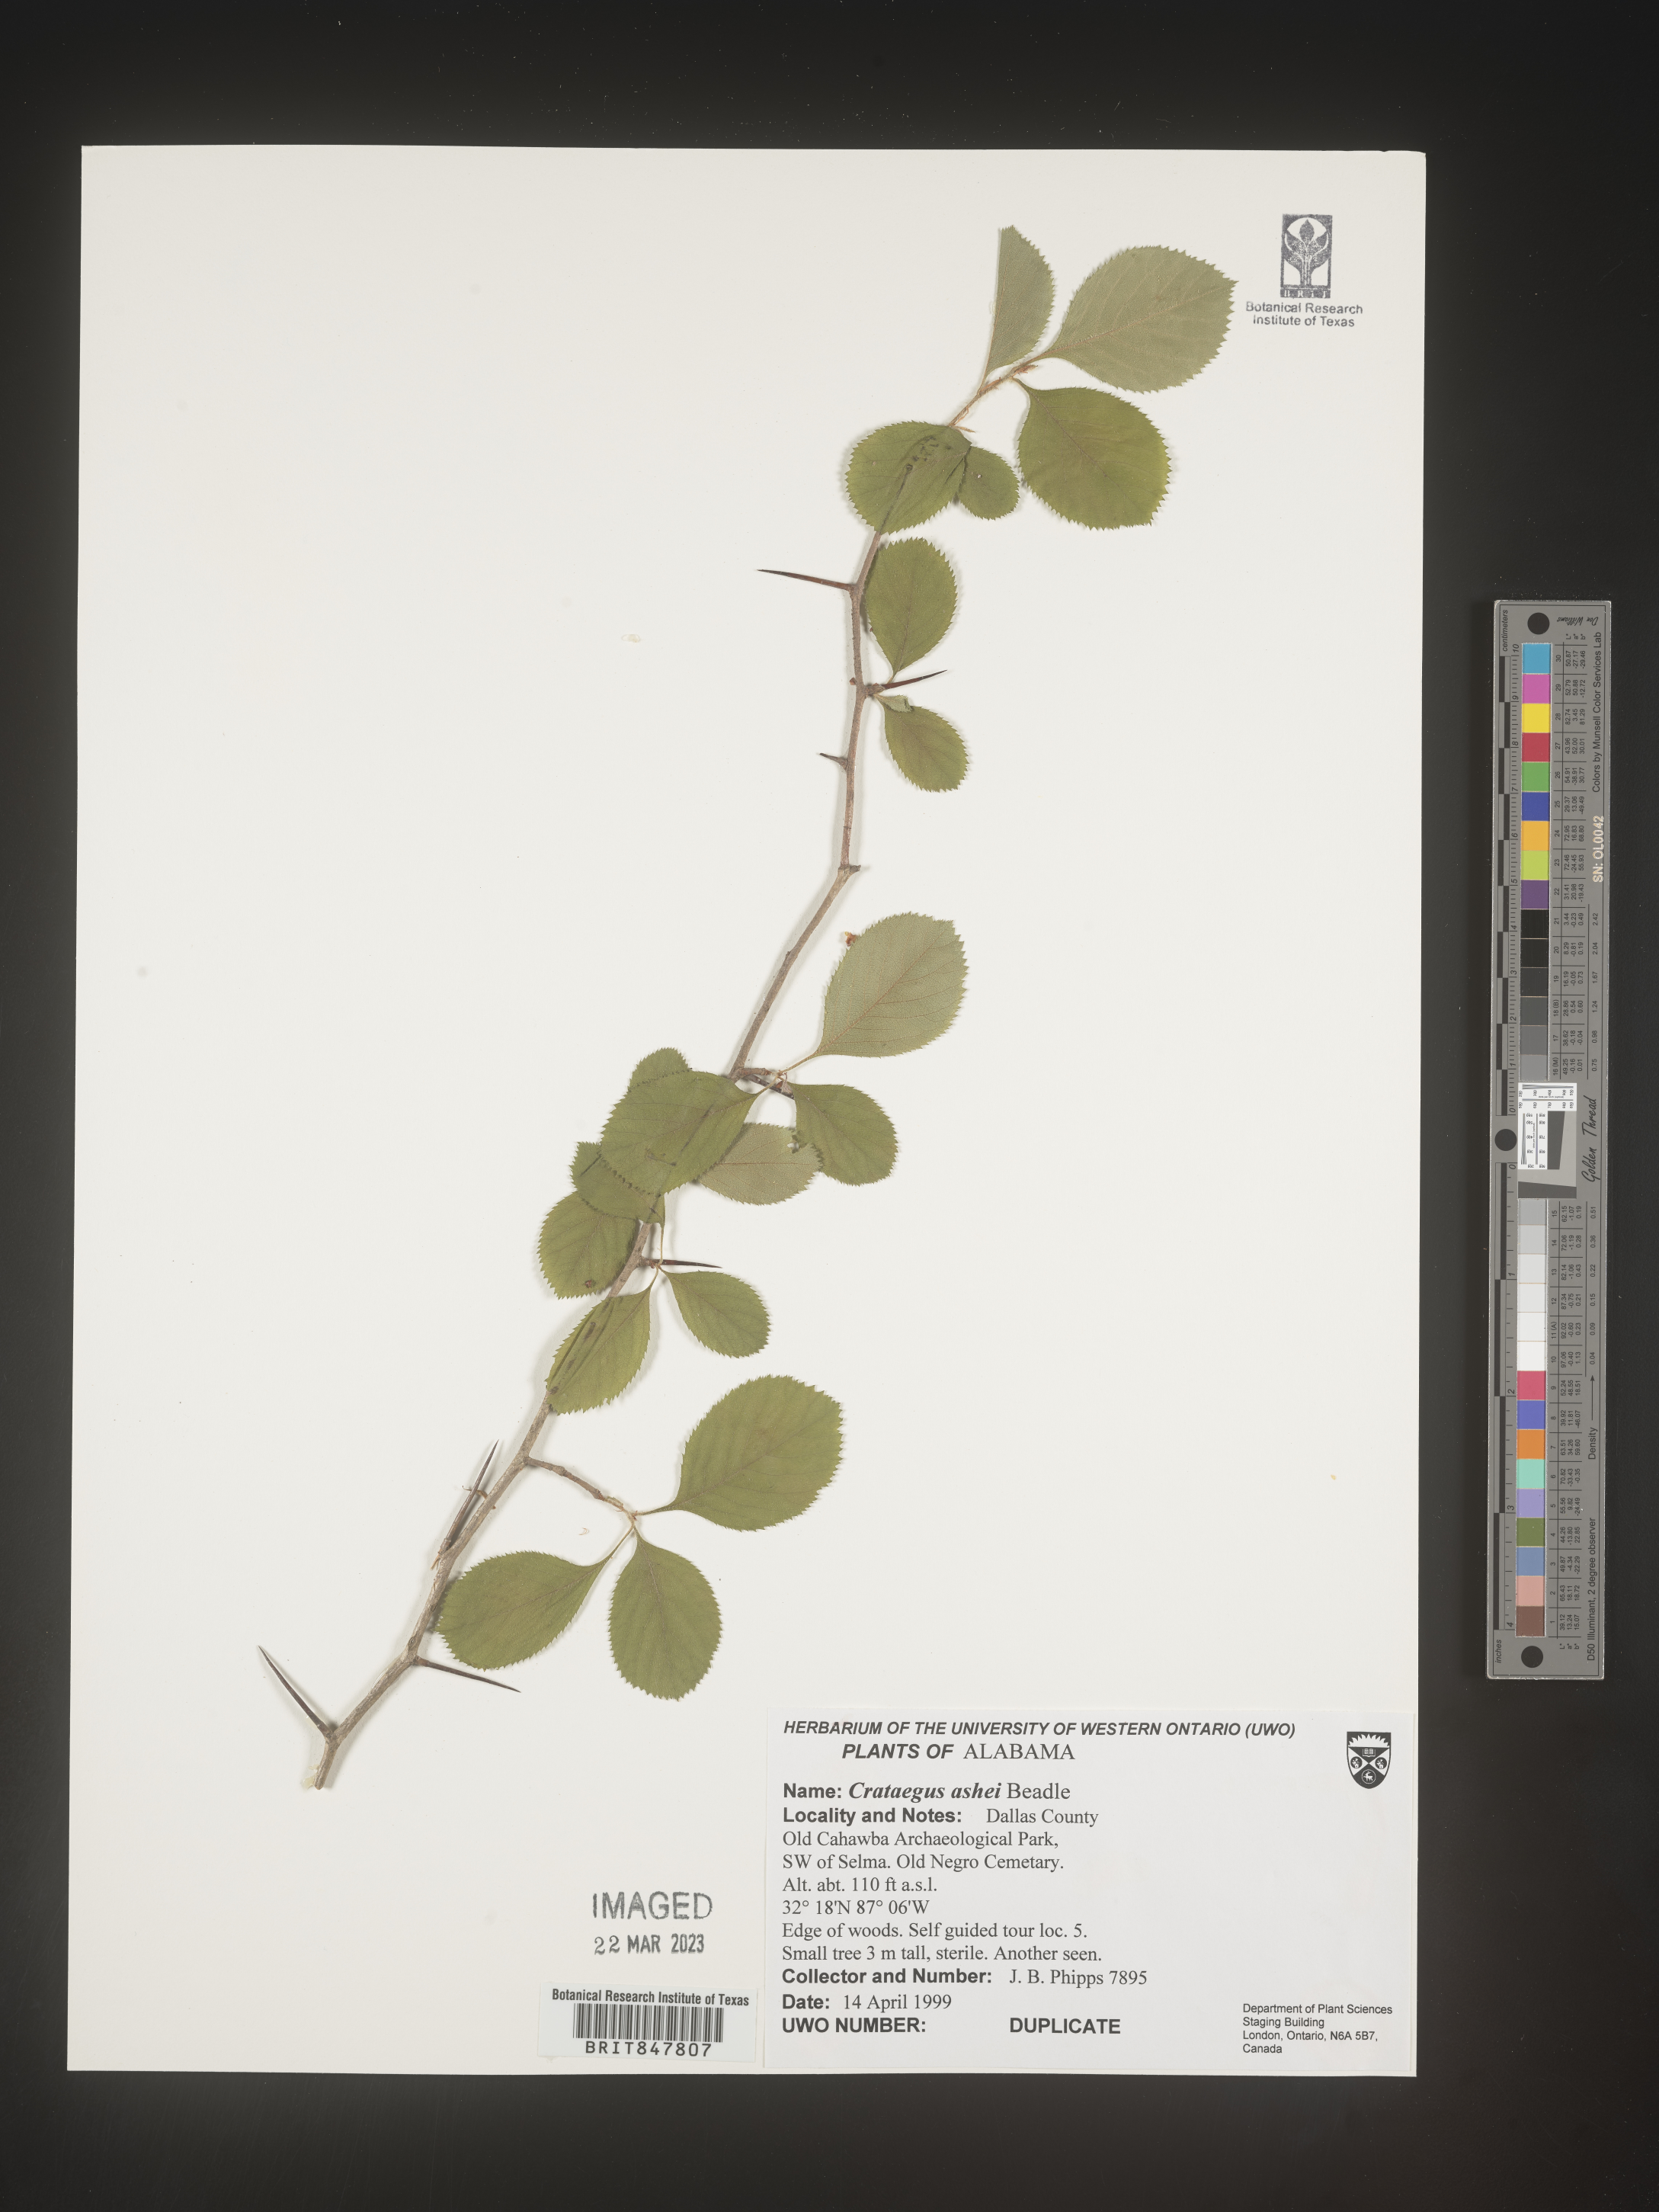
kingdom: Plantae
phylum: Tracheophyta
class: Magnoliopsida
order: Rosales
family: Rosaceae
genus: Crataegus
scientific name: Crataegus
